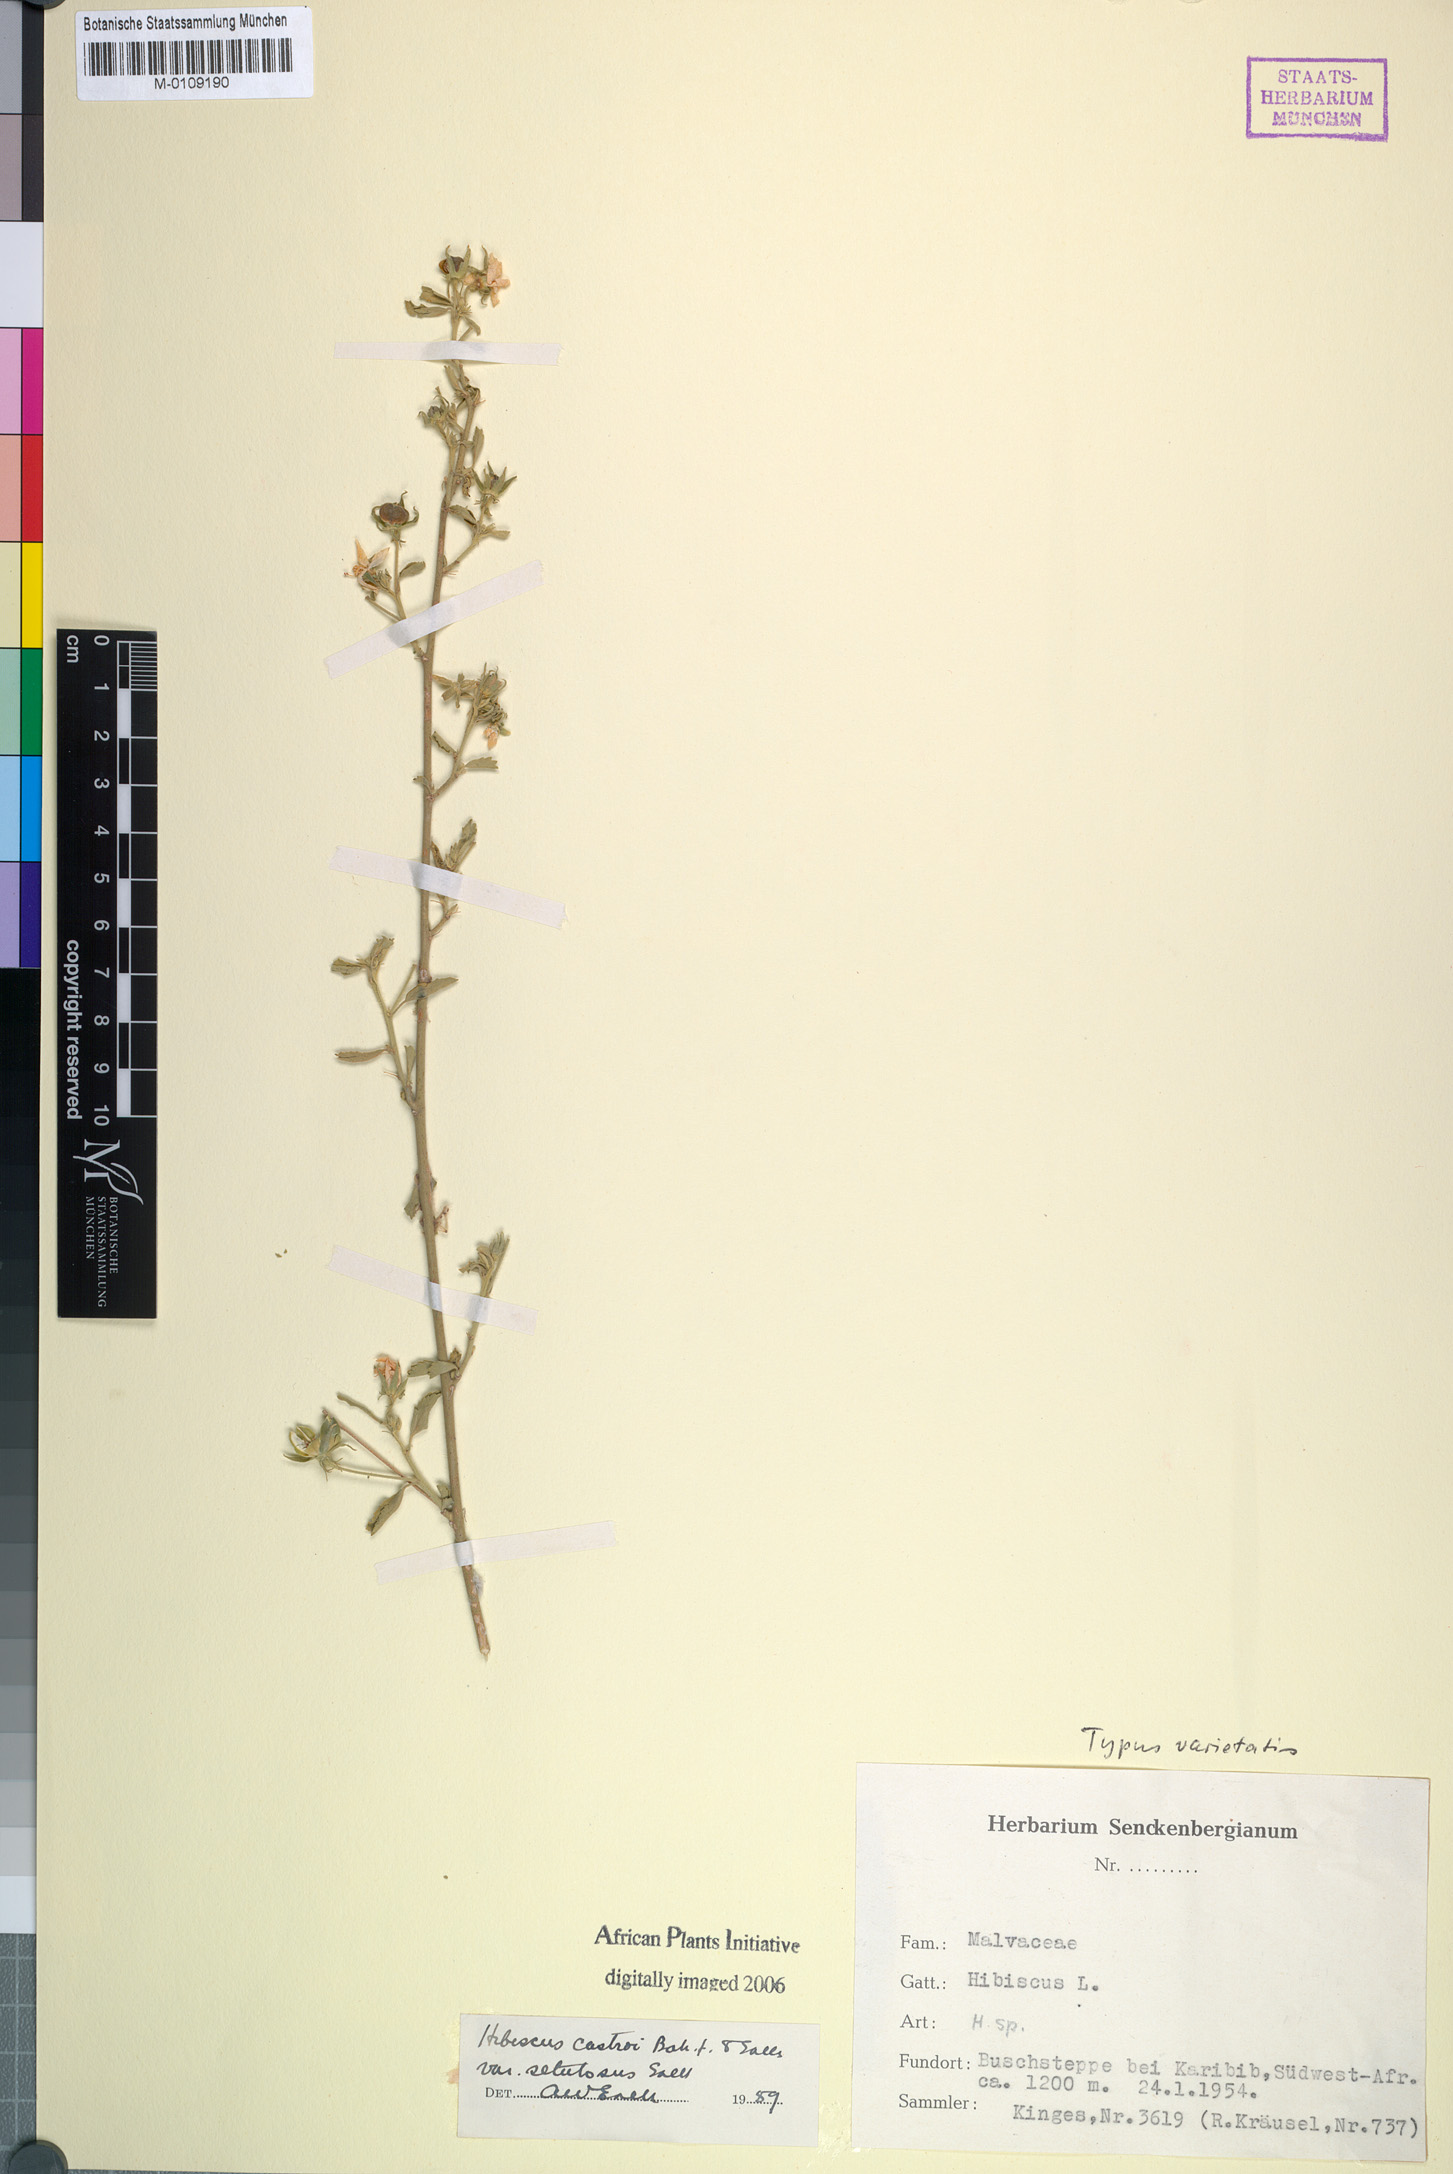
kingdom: Plantae
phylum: Tracheophyta
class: Magnoliopsida
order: Malvales
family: Malvaceae
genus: Hibiscus
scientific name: Hibiscus castroi
